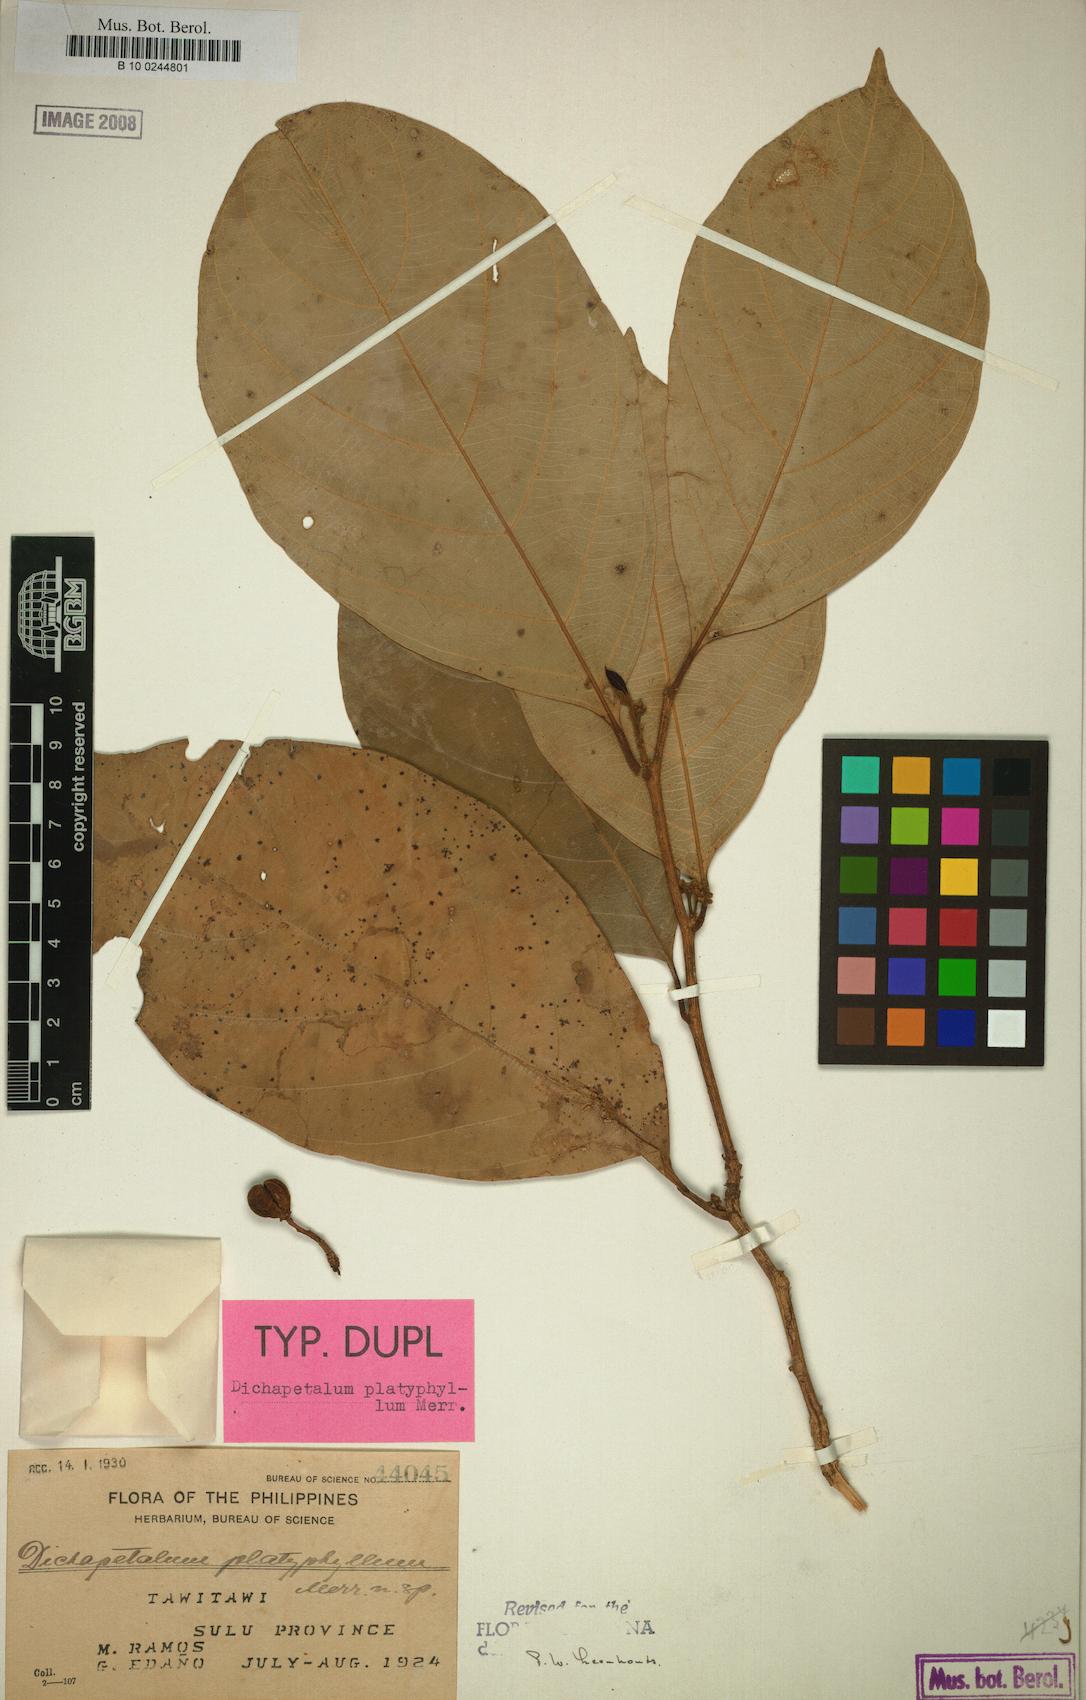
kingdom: Plantae
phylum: Tracheophyta
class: Magnoliopsida
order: Malpighiales
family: Dichapetalaceae
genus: Dichapetalum
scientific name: Dichapetalum platyphyllum
